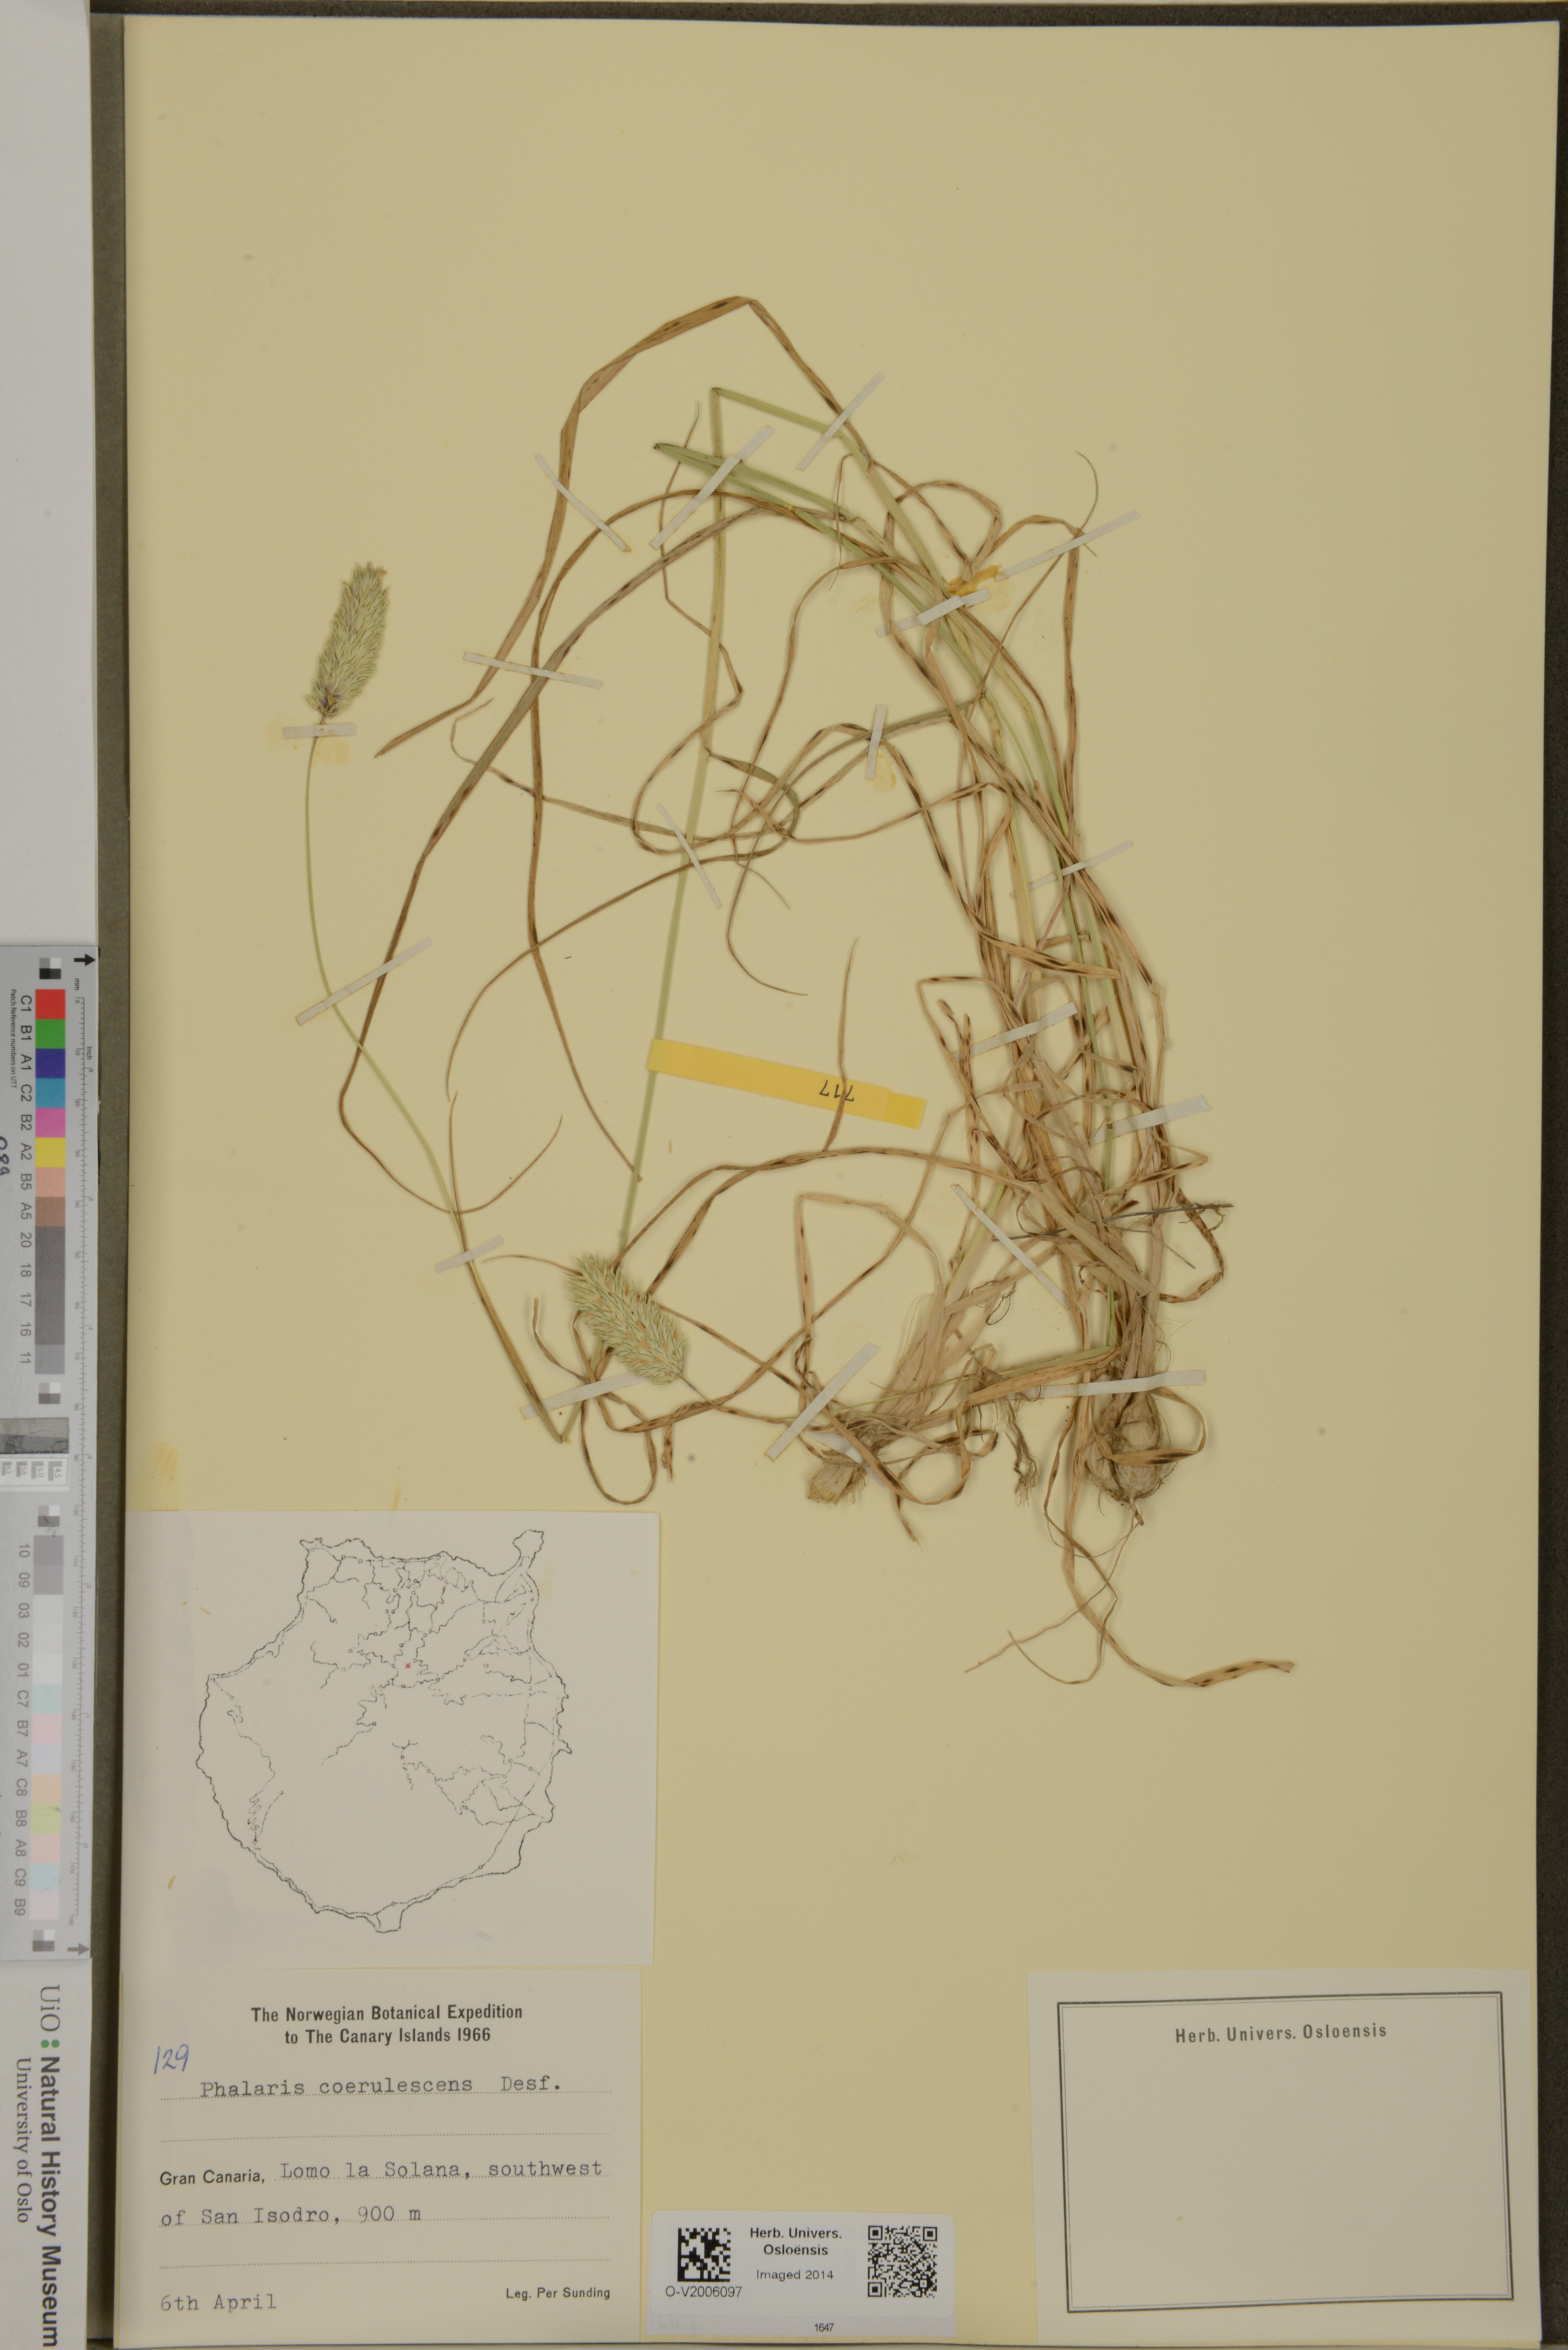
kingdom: Plantae
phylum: Tracheophyta
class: Liliopsida
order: Poales
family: Poaceae
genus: Phalaris
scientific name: Phalaris coerulescens
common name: Sunolgrass
